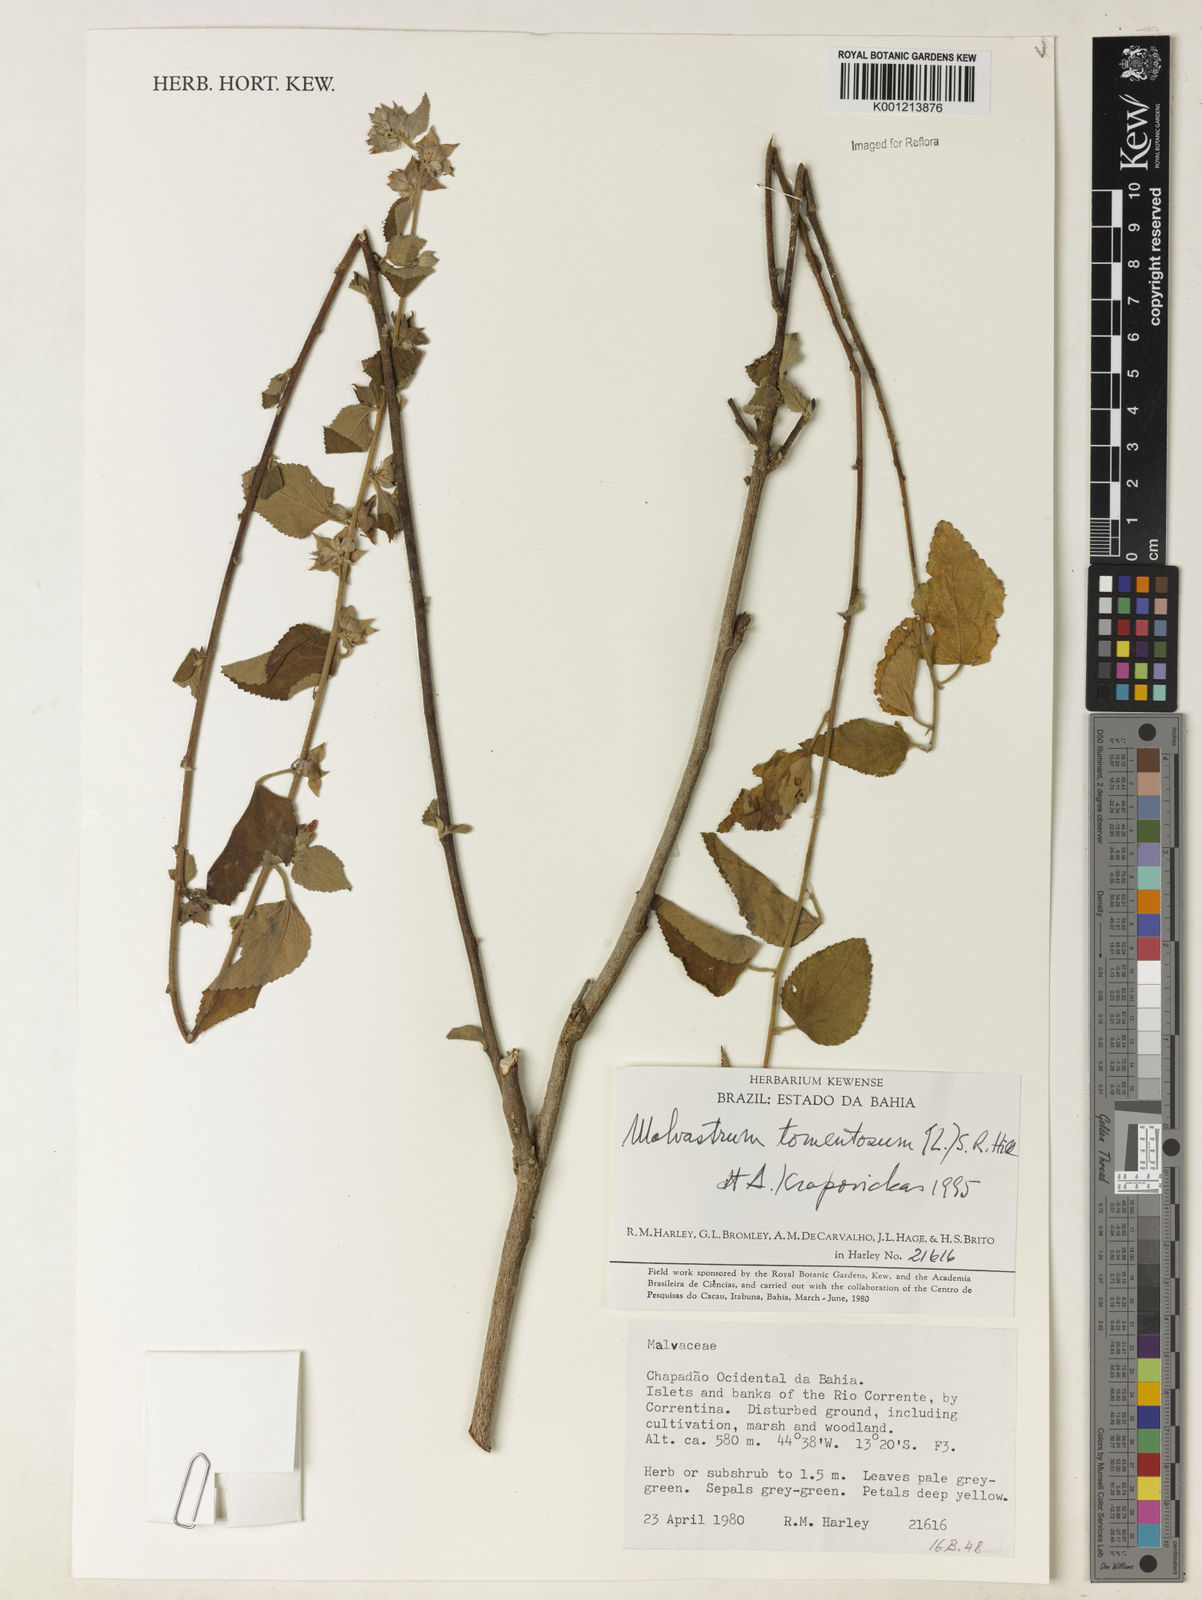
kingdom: Plantae
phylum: Tracheophyta
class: Magnoliopsida
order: Malvales
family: Malvaceae
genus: Malvastrum
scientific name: Malvastrum tomentosum
